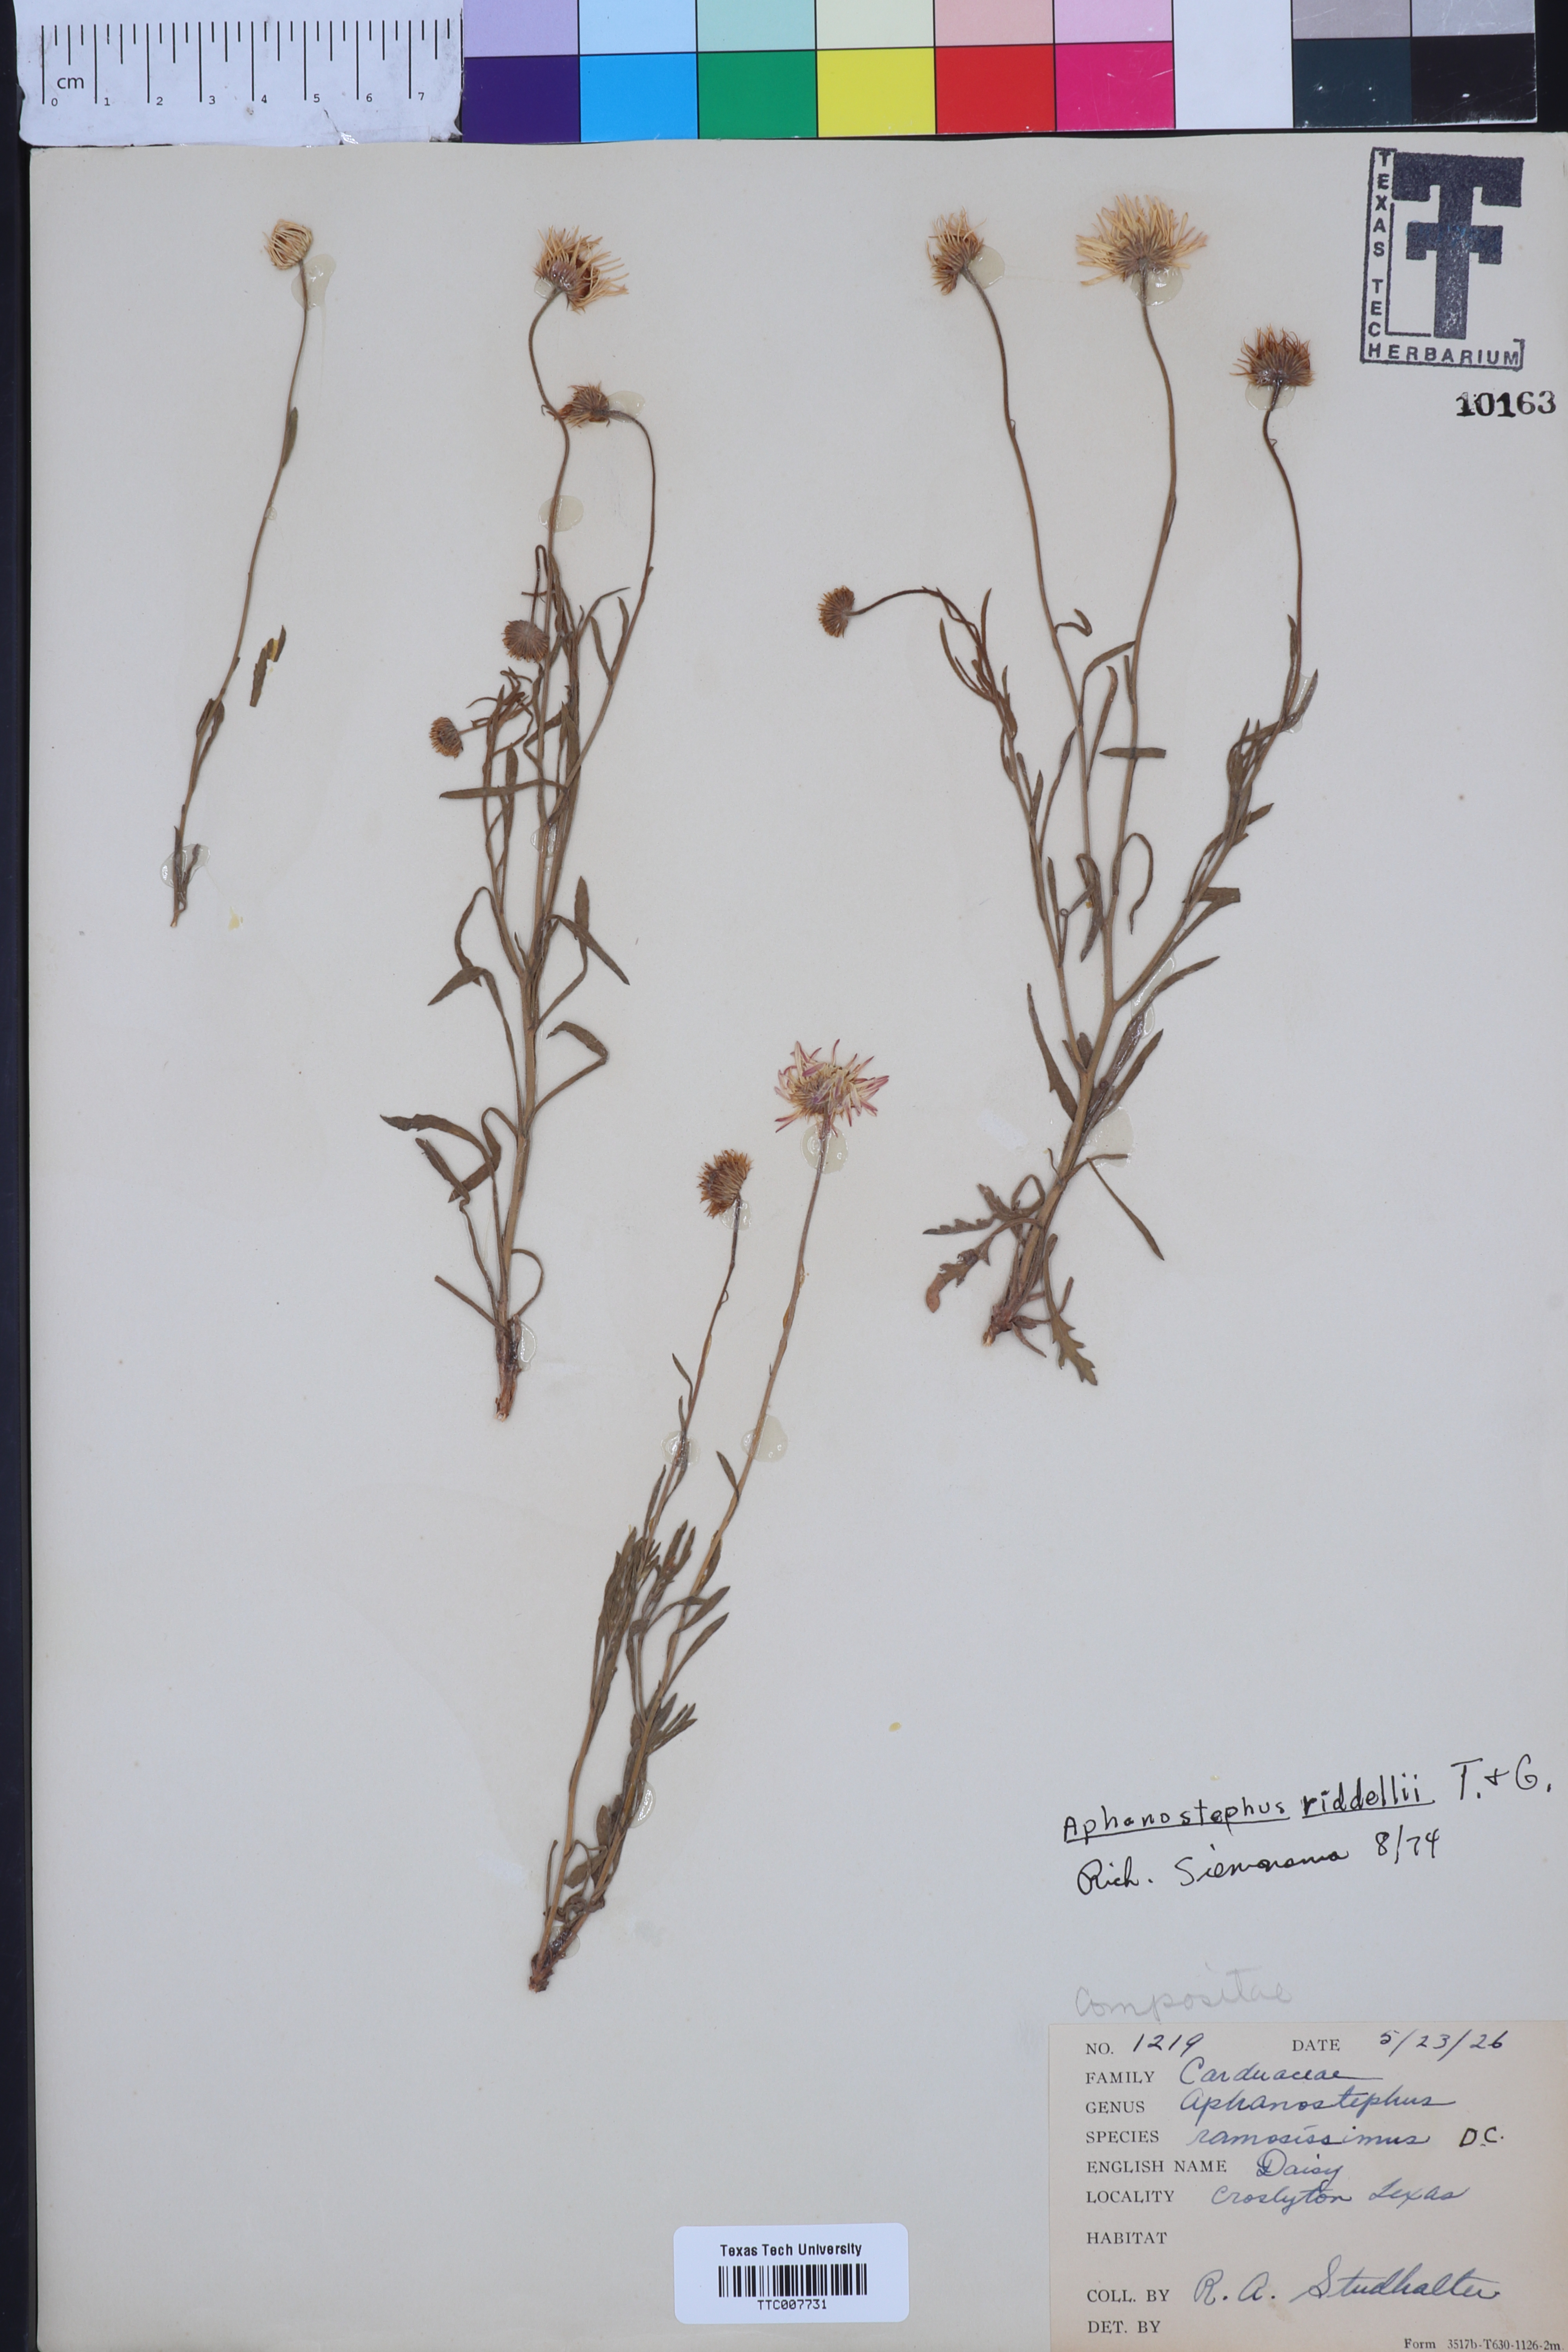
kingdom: Plantae
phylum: Tracheophyta
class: Magnoliopsida
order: Asterales
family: Asteraceae
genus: Aphanostephus
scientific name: Aphanostephus riddellii
